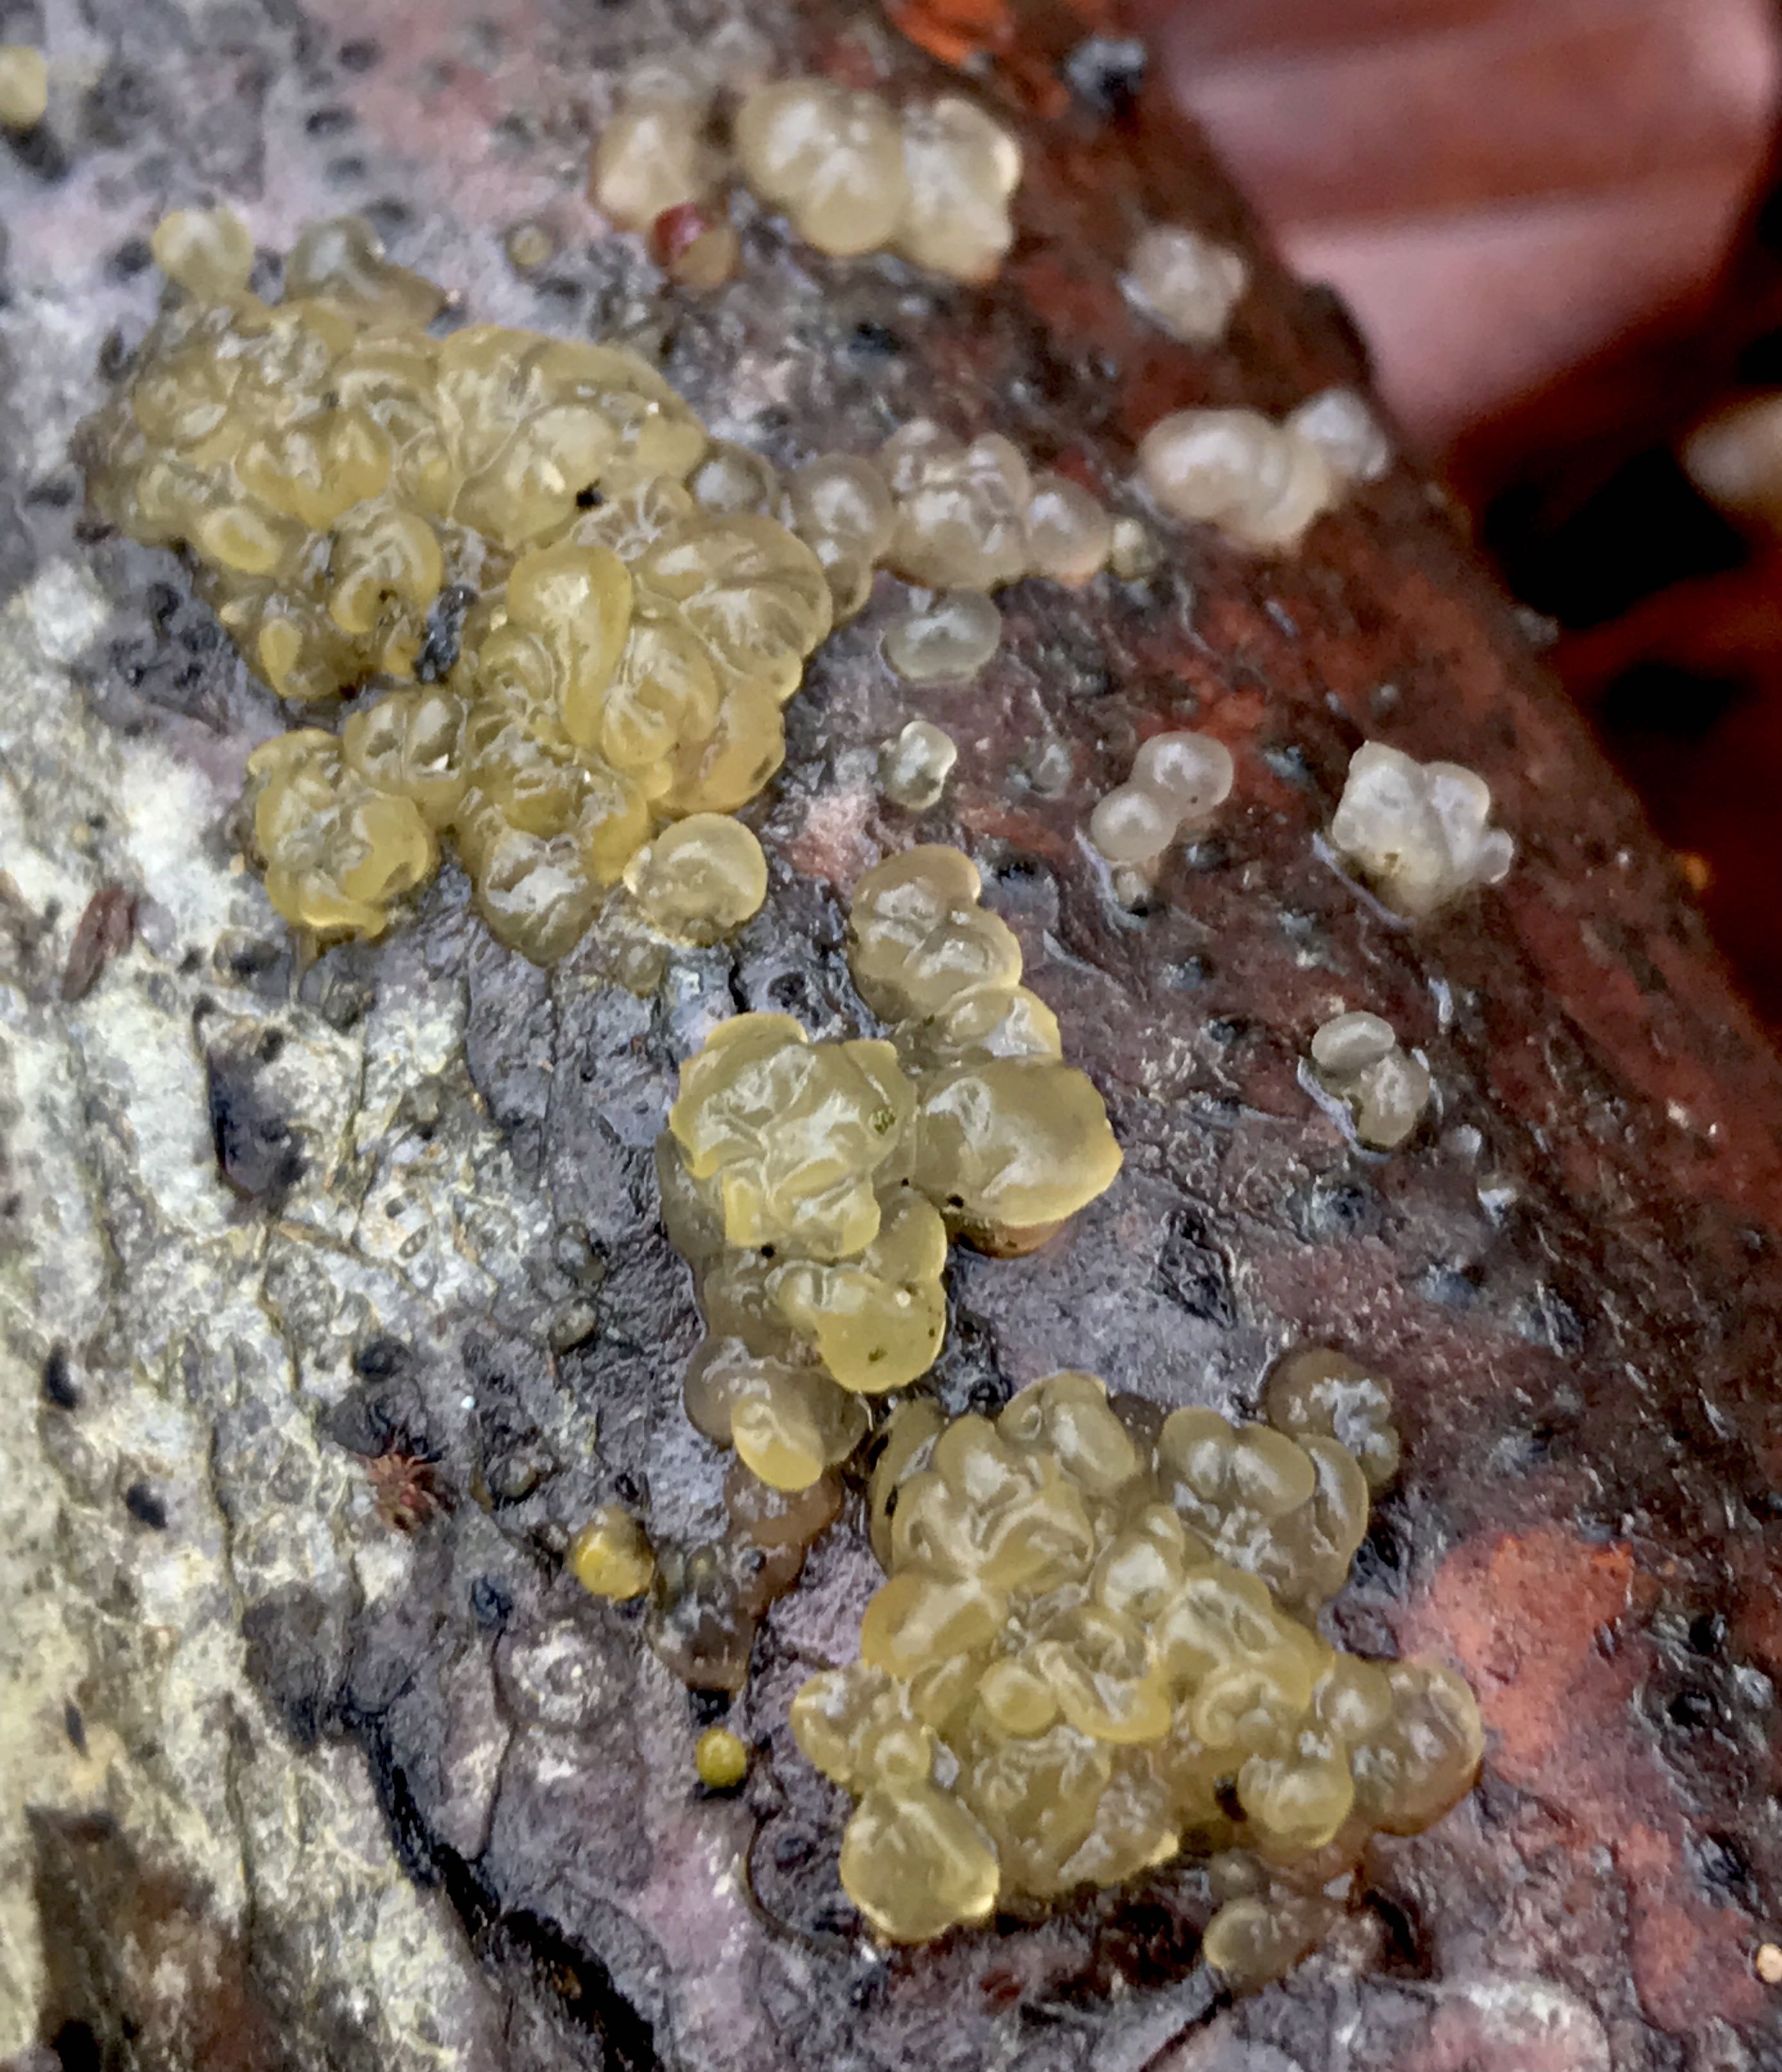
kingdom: Fungi
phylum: Basidiomycota
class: Dacrymycetes
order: Dacrymycetales
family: Dacrymycetaceae
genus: Dacrymyces
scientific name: Dacrymyces lacrymalis
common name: rynket tåresvamp
